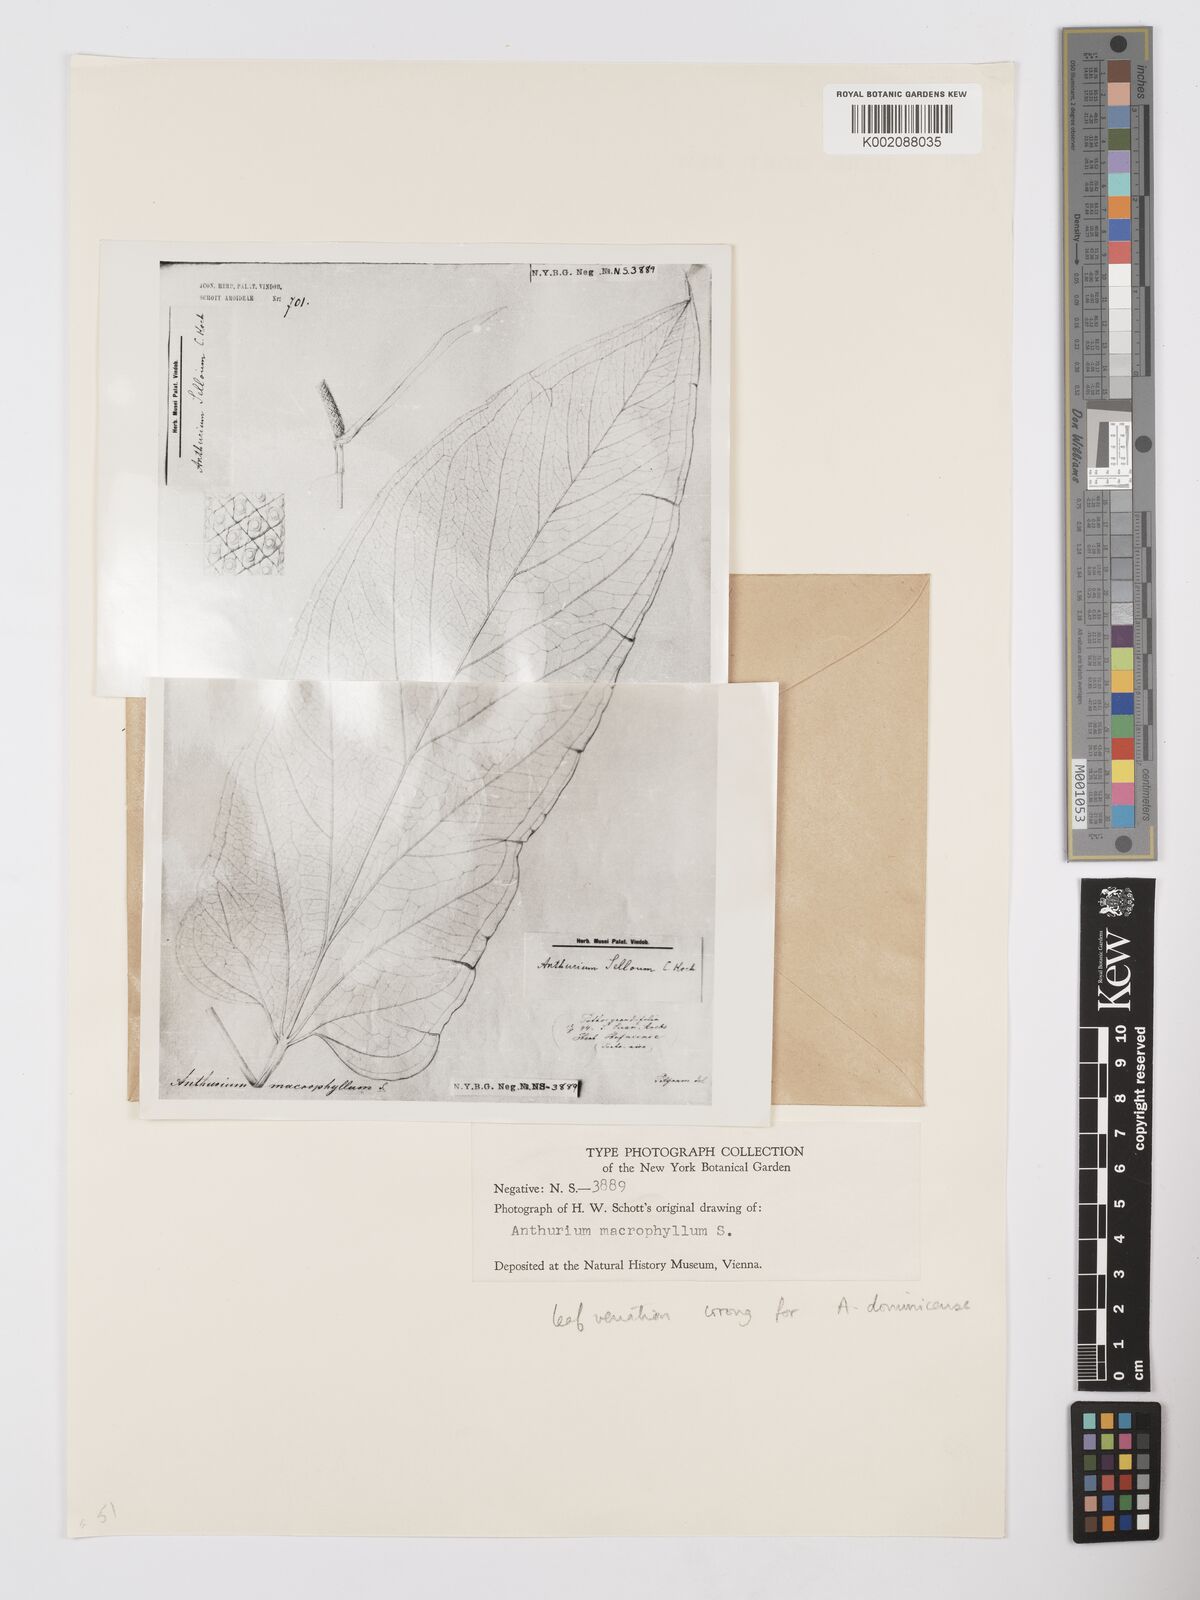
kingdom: Plantae
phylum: Tracheophyta
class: Liliopsida
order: Alismatales
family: Araceae
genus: Anthurium
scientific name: Anthurium
